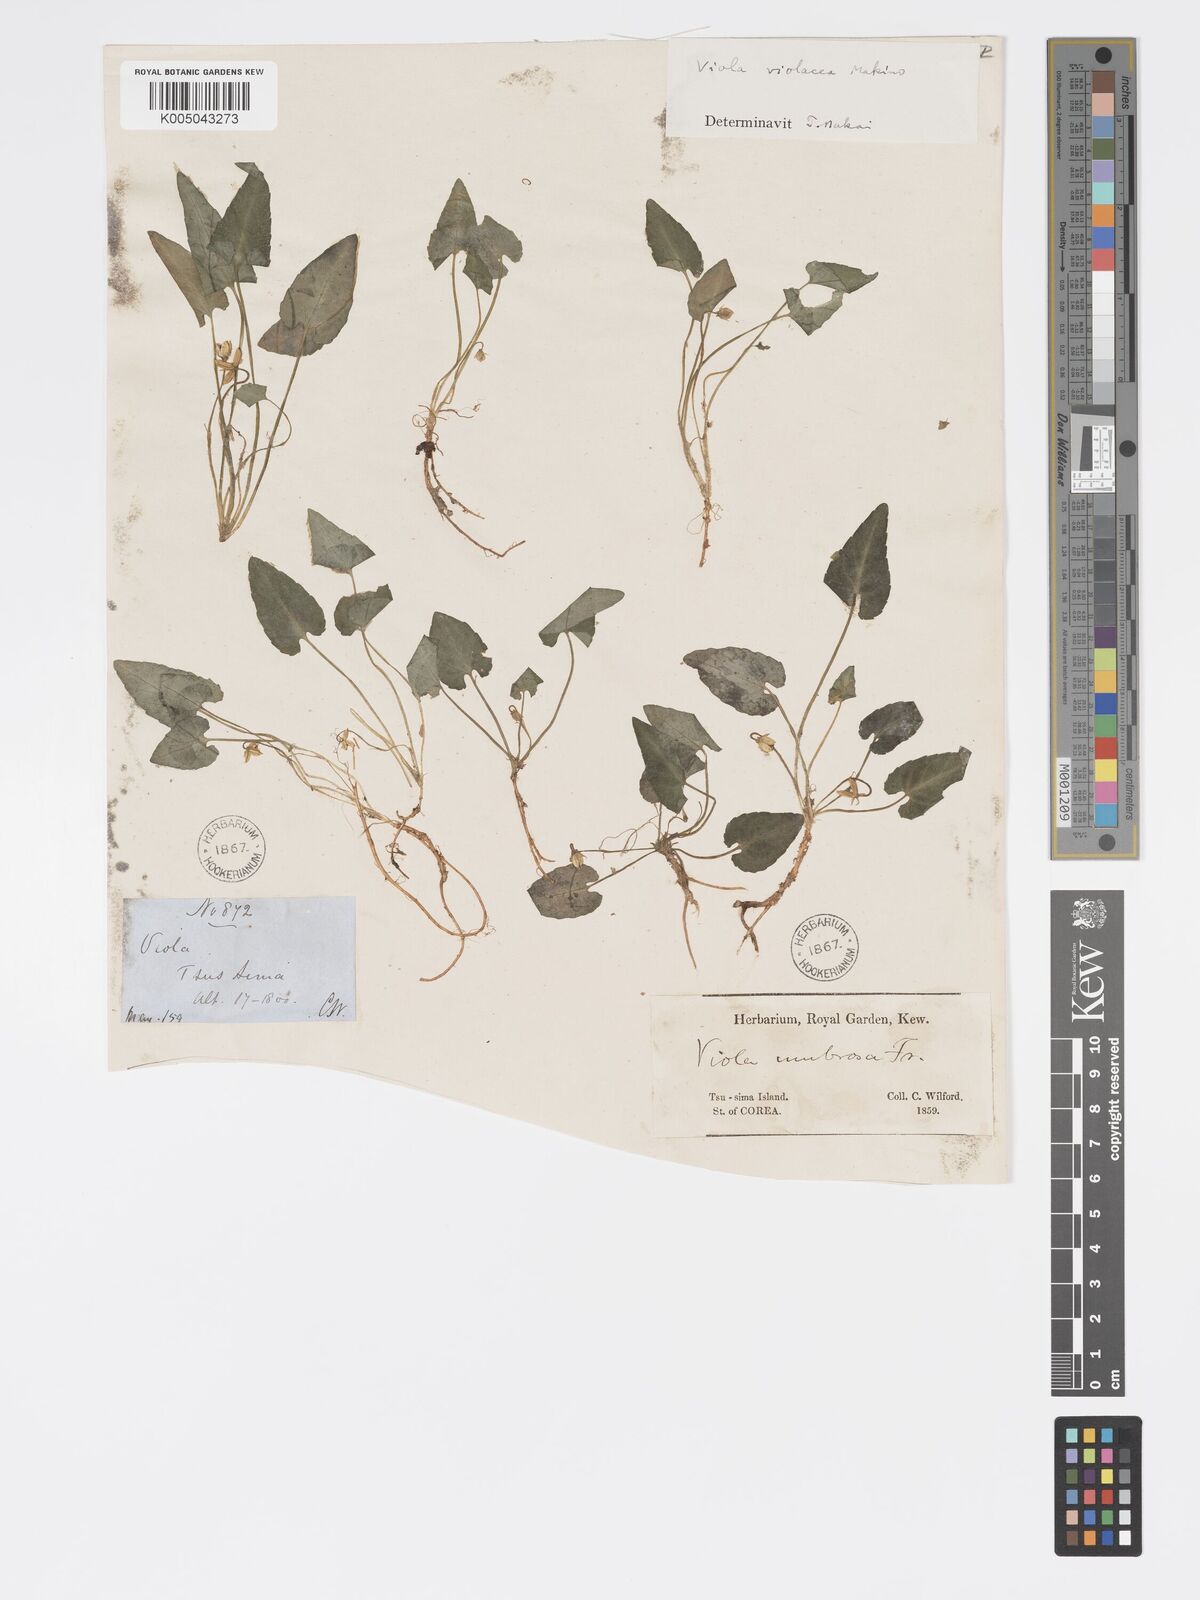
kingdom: Plantae
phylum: Tracheophyta
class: Magnoliopsida
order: Malpighiales
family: Violaceae
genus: Viola
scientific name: Viola violacea
